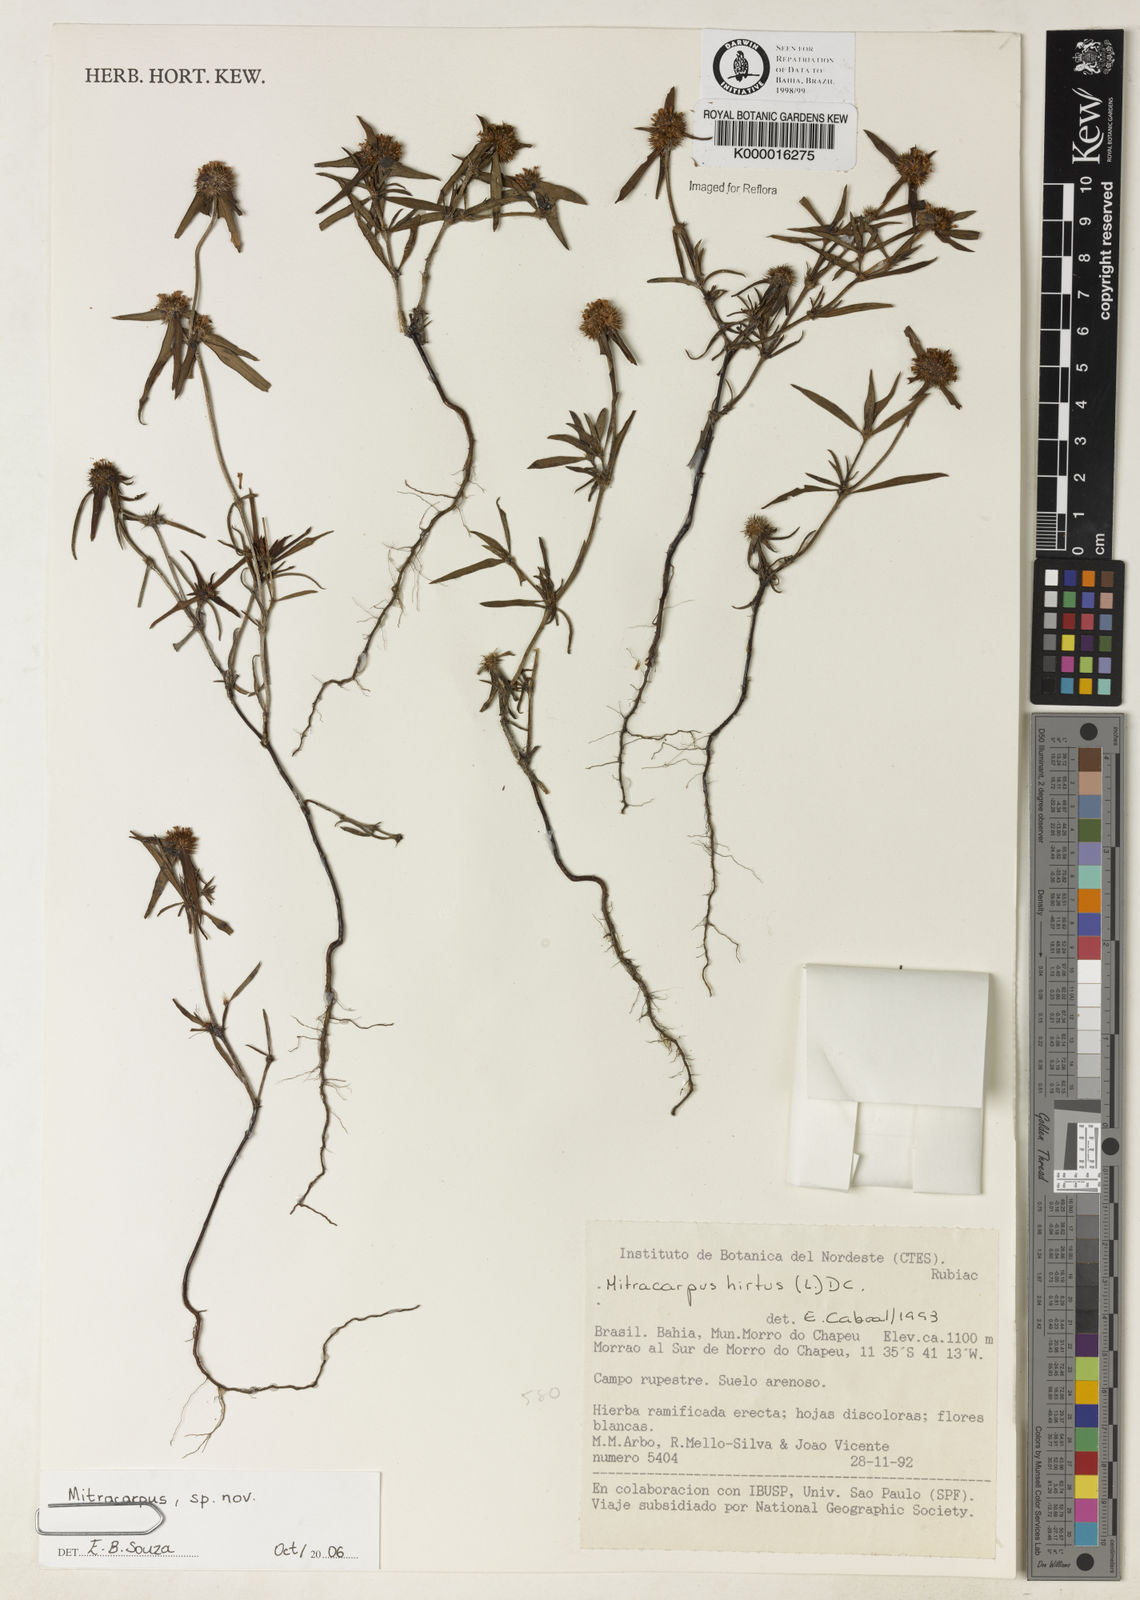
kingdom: Plantae
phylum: Tracheophyta
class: Magnoliopsida
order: Gentianales
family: Rubiaceae
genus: Mitracarpus
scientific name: Mitracarpus
